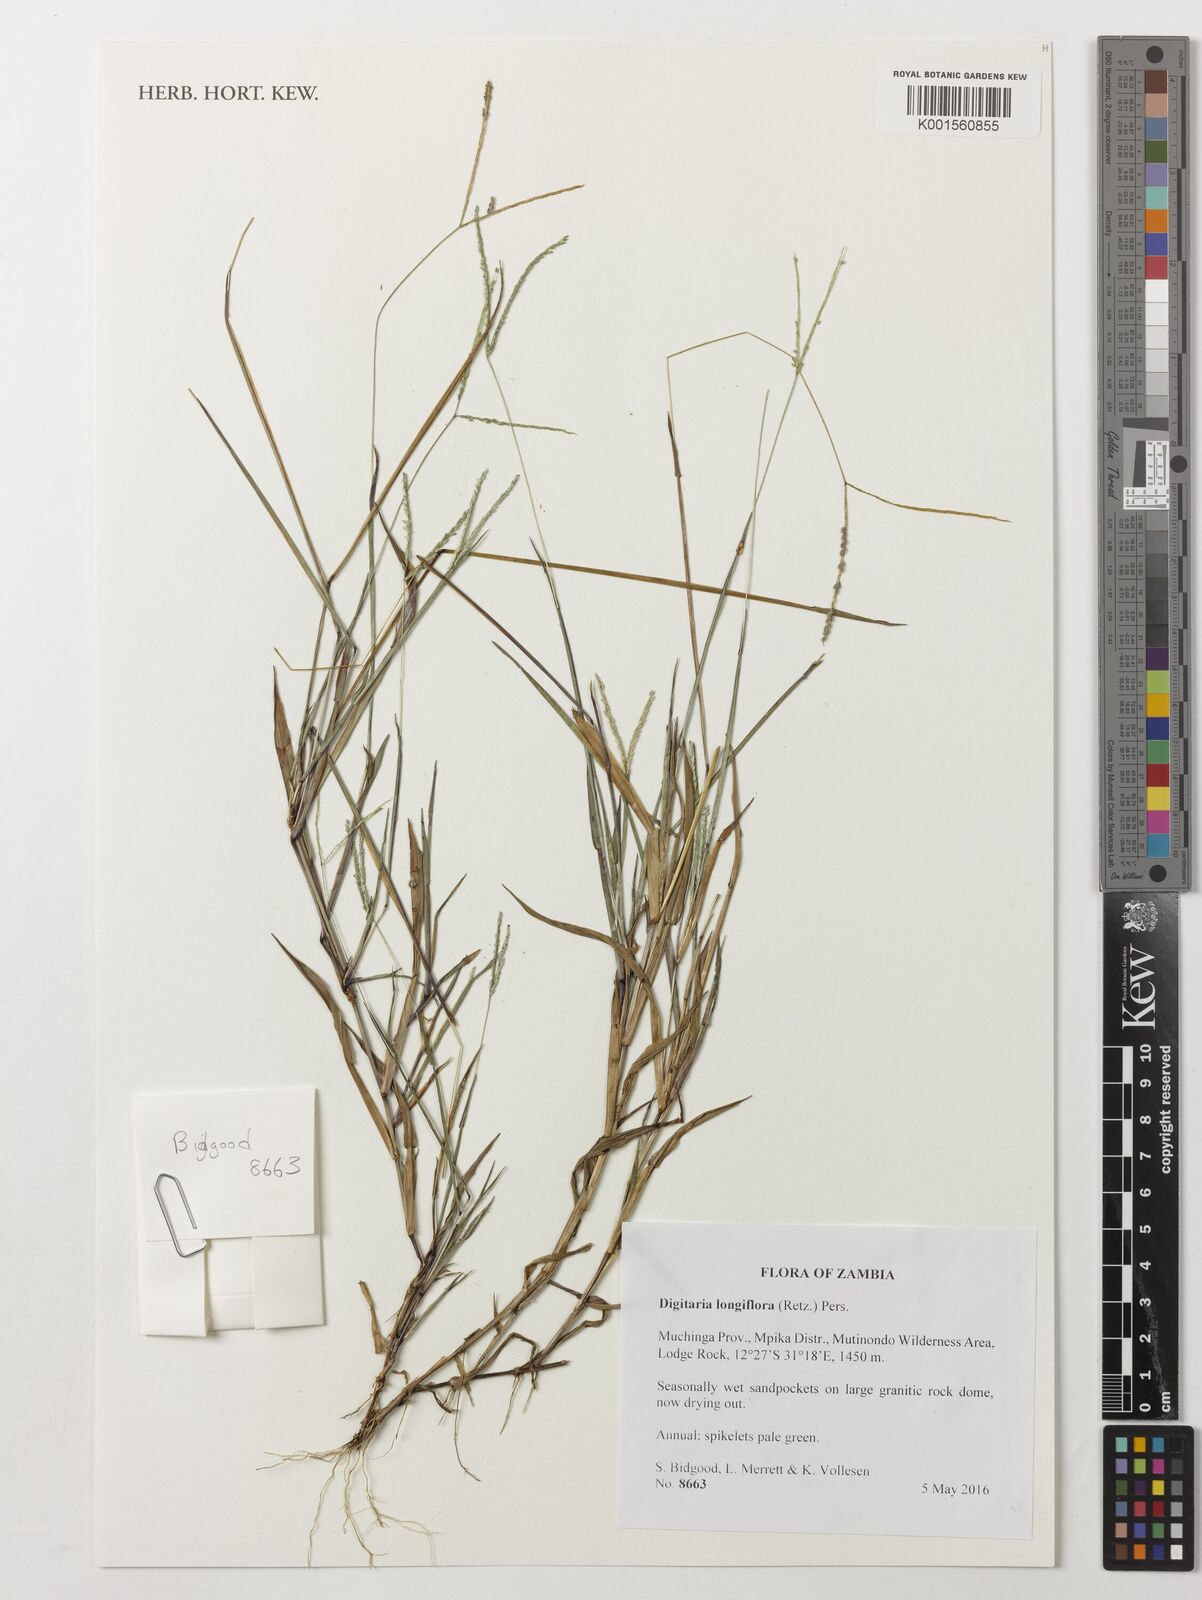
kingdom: Plantae
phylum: Tracheophyta
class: Liliopsida
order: Poales
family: Poaceae
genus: Digitaria
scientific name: Digitaria longiflora
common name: Wire crabgrass
